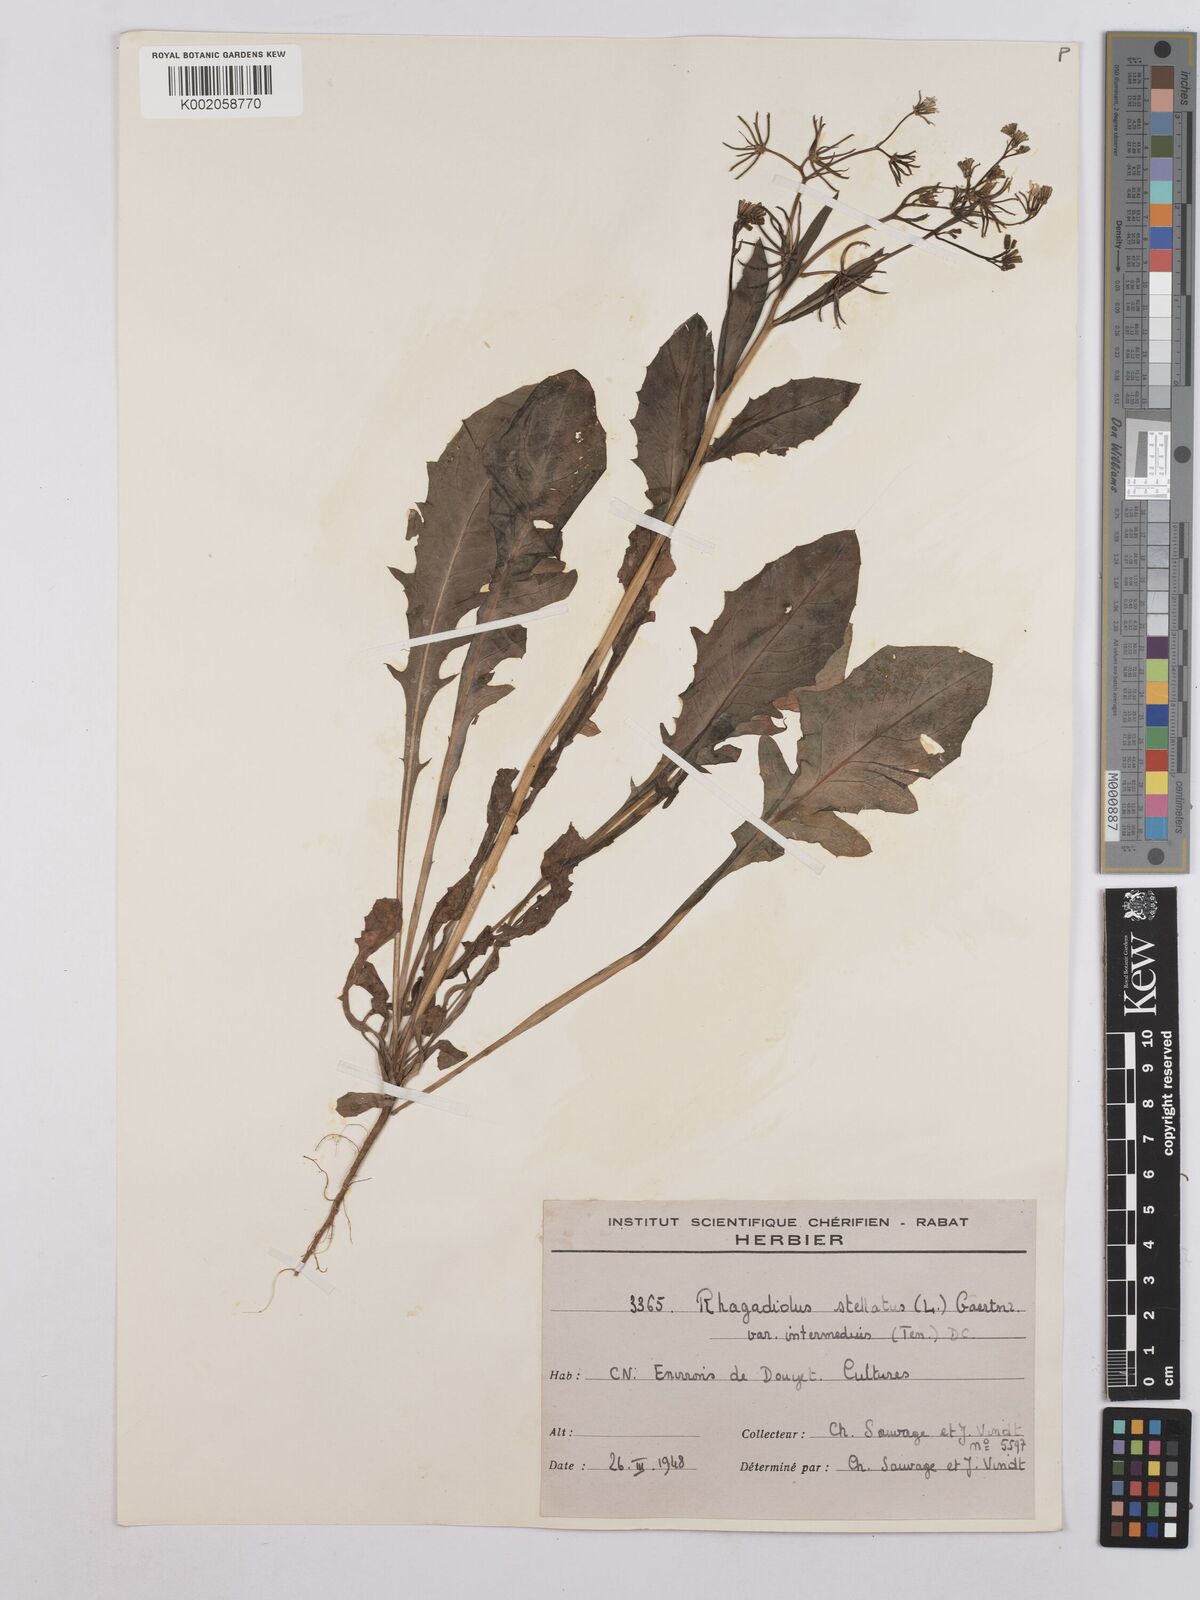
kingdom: Plantae
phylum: Tracheophyta
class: Magnoliopsida
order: Asterales
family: Asteraceae
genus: Rhagadiolus
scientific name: Rhagadiolus stellatus
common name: Star hawkbit
